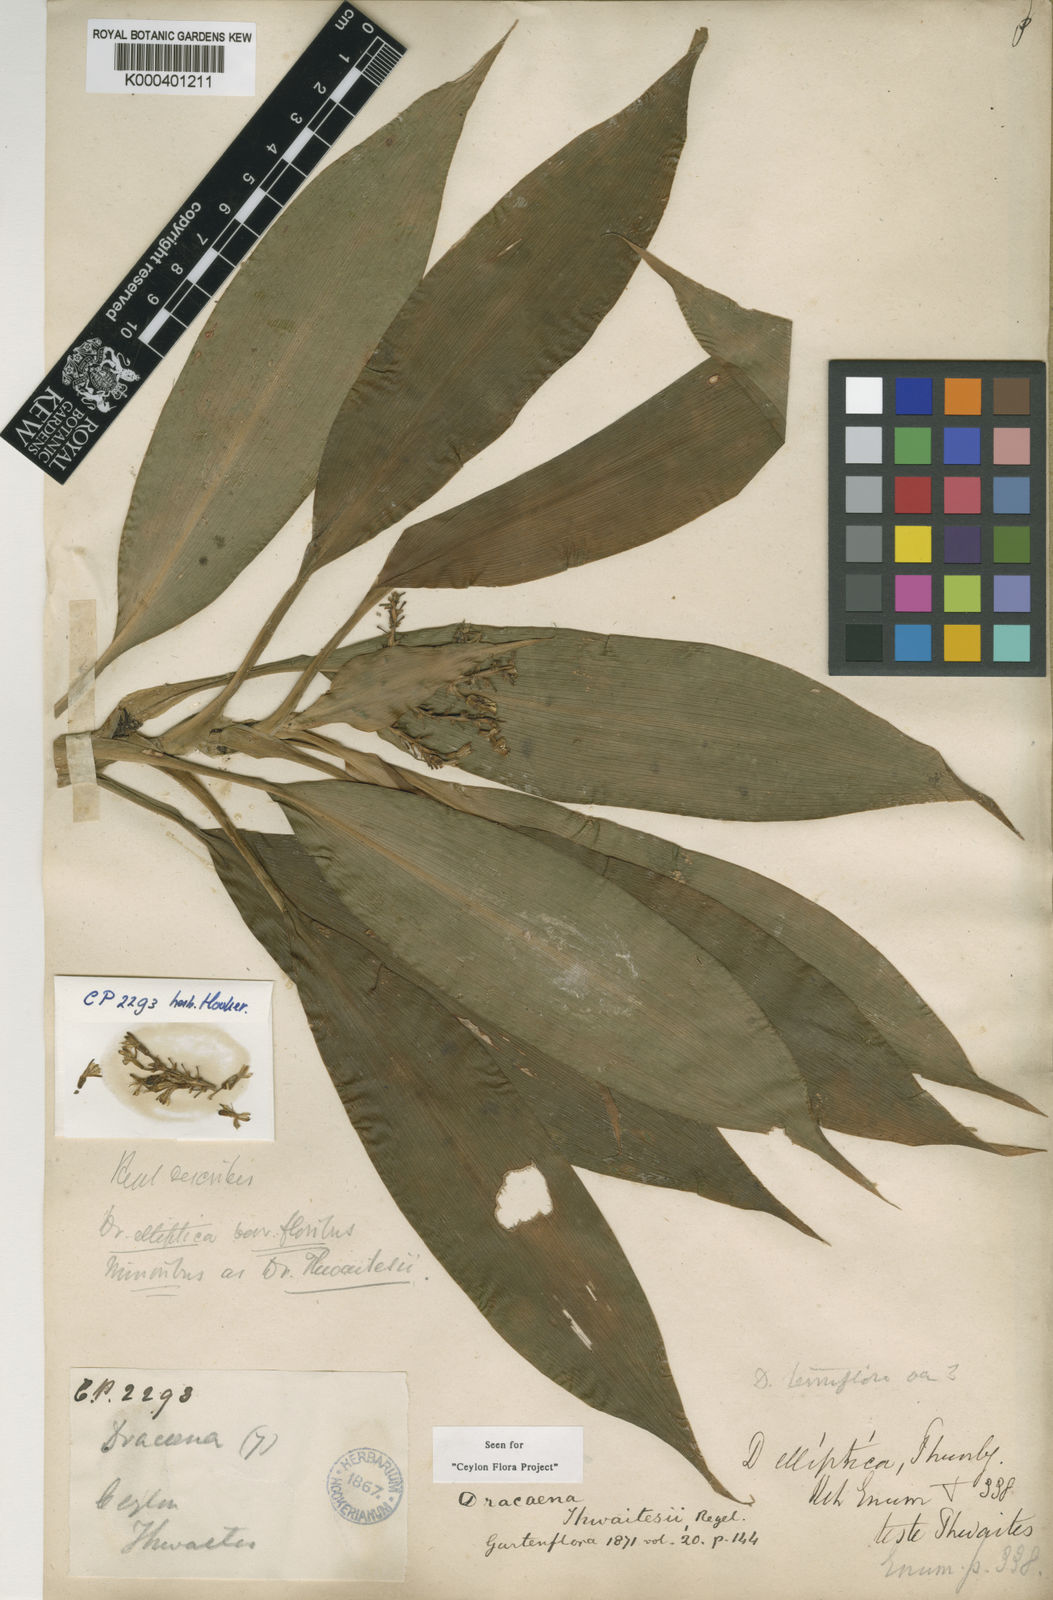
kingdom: Plantae
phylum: Tracheophyta
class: Liliopsida
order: Asparagales
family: Asparagaceae
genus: Dracaena
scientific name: Dracaena thwaitesii
